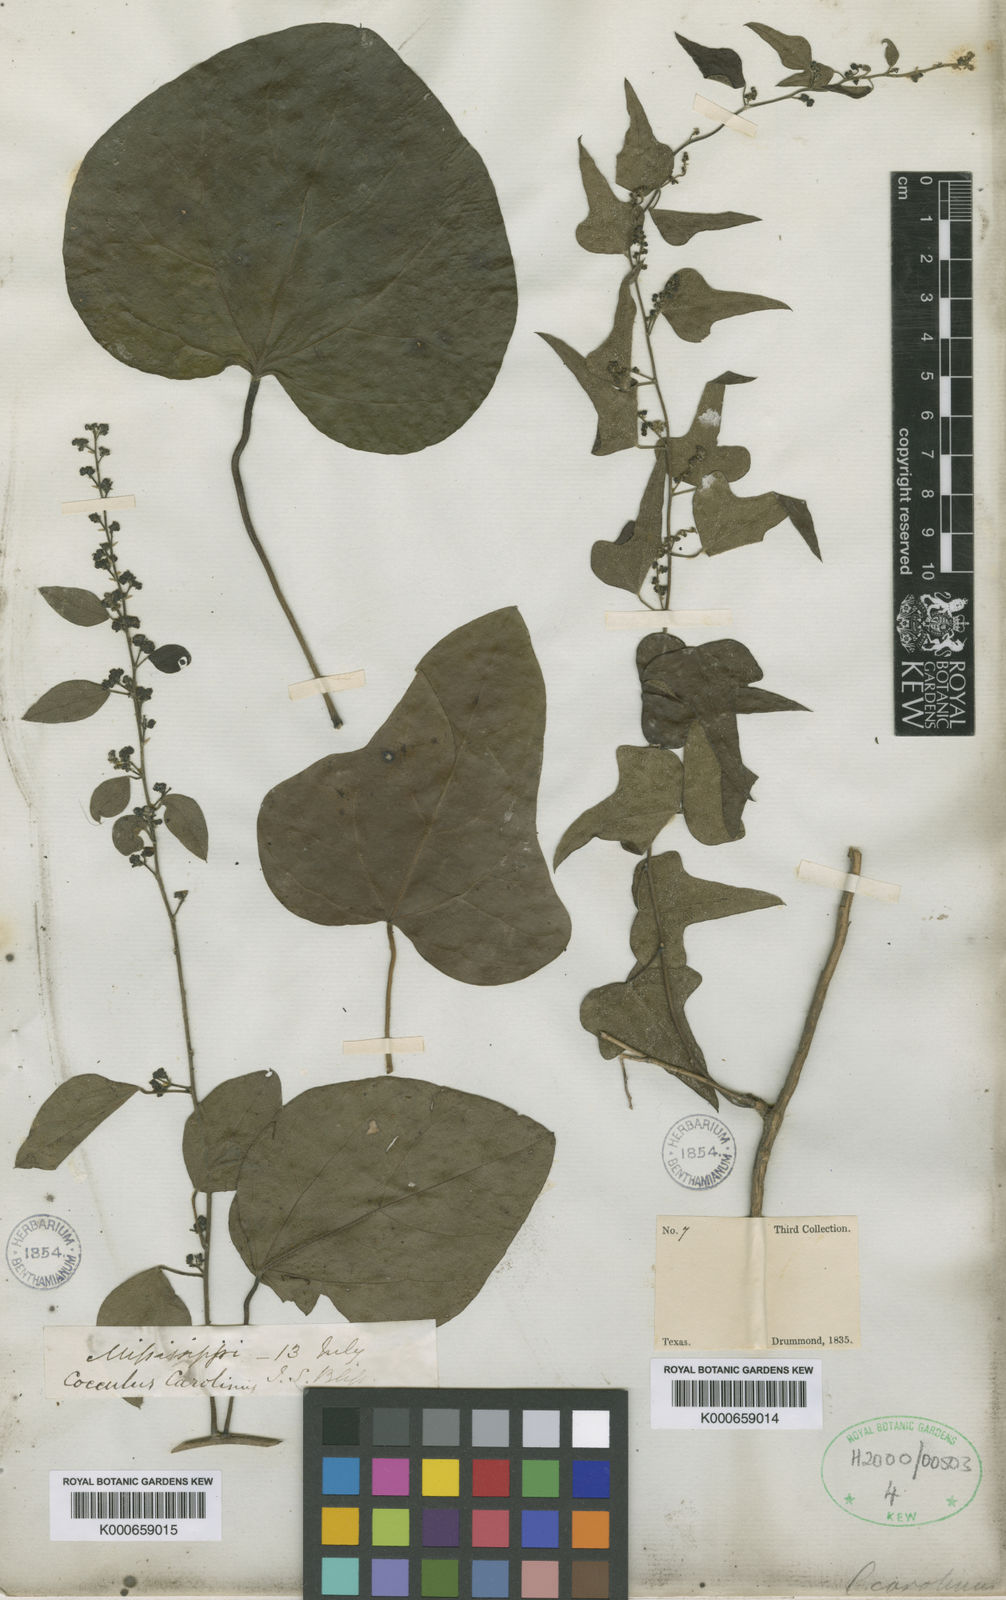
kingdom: Plantae
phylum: Tracheophyta
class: Magnoliopsida
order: Ranunculales
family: Menispermaceae
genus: Cocculus
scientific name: Cocculus carolinus
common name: Carolina moonseed
